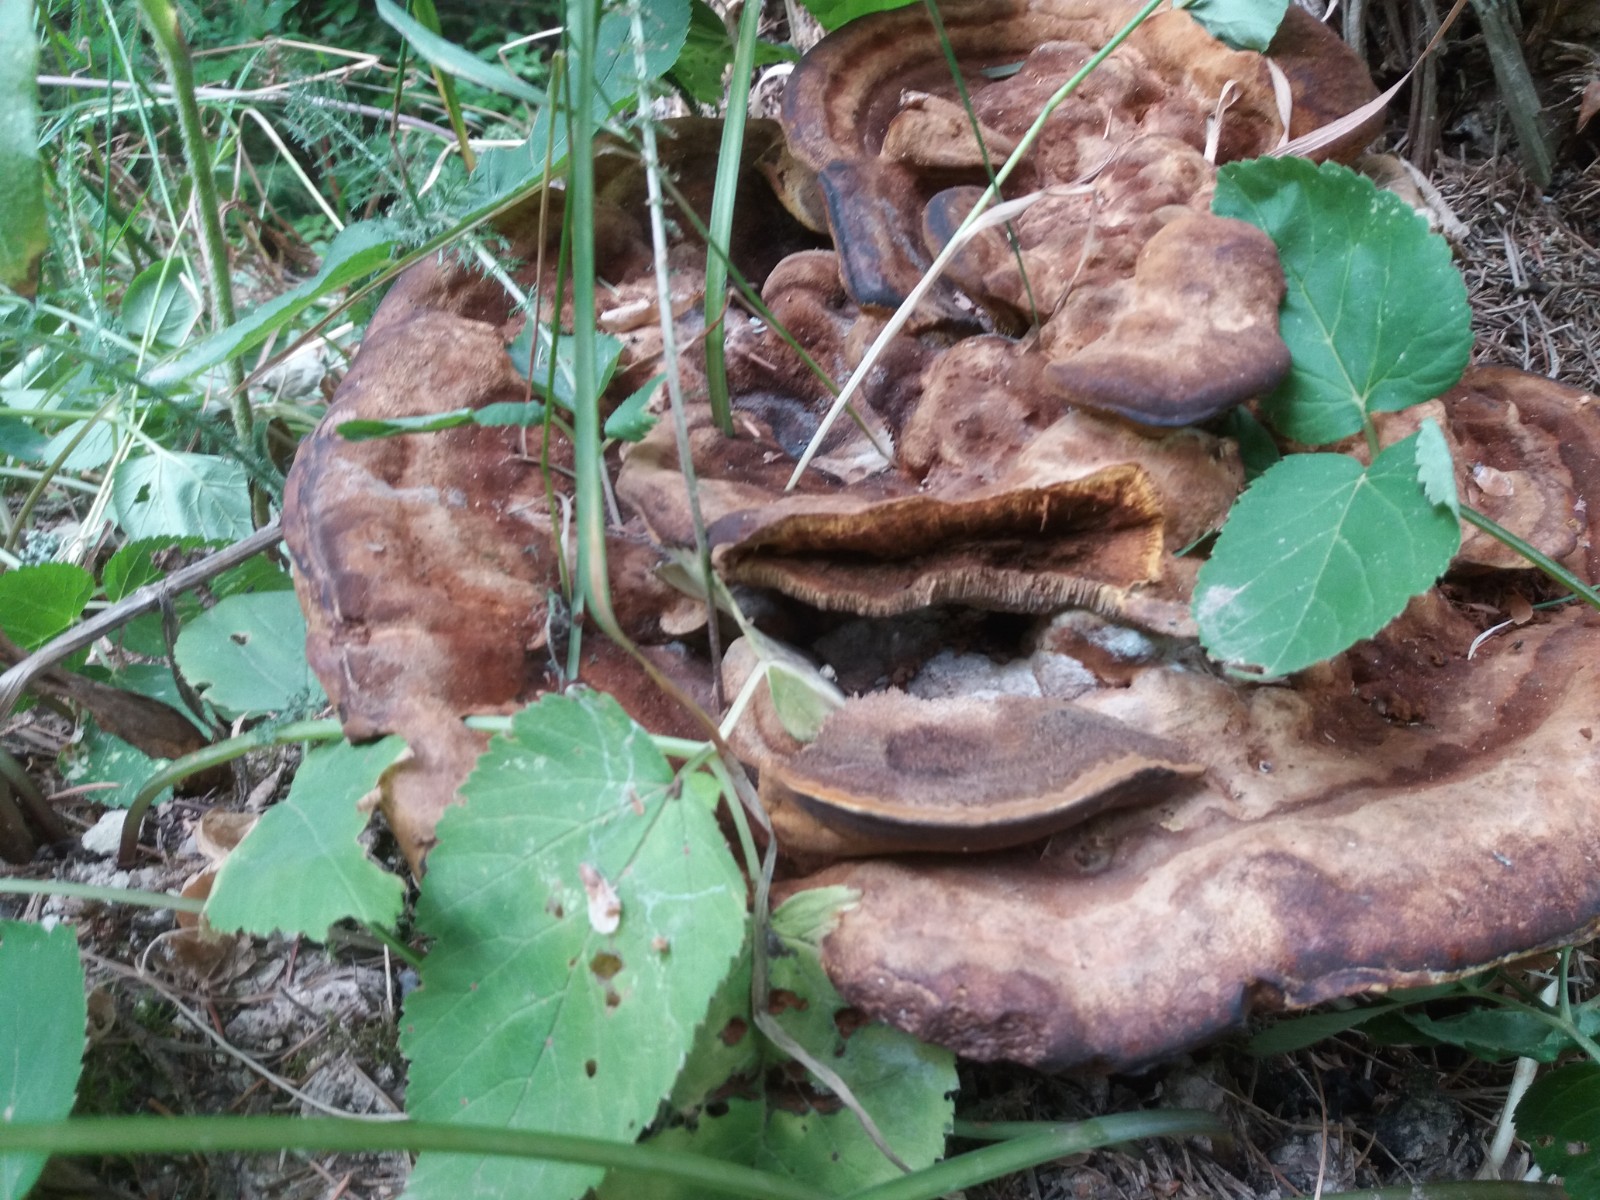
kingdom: Fungi
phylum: Basidiomycota
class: Agaricomycetes
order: Polyporales
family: Laetiporaceae
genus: Phaeolus
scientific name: Phaeolus schweinitzii
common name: brunporesvamp
